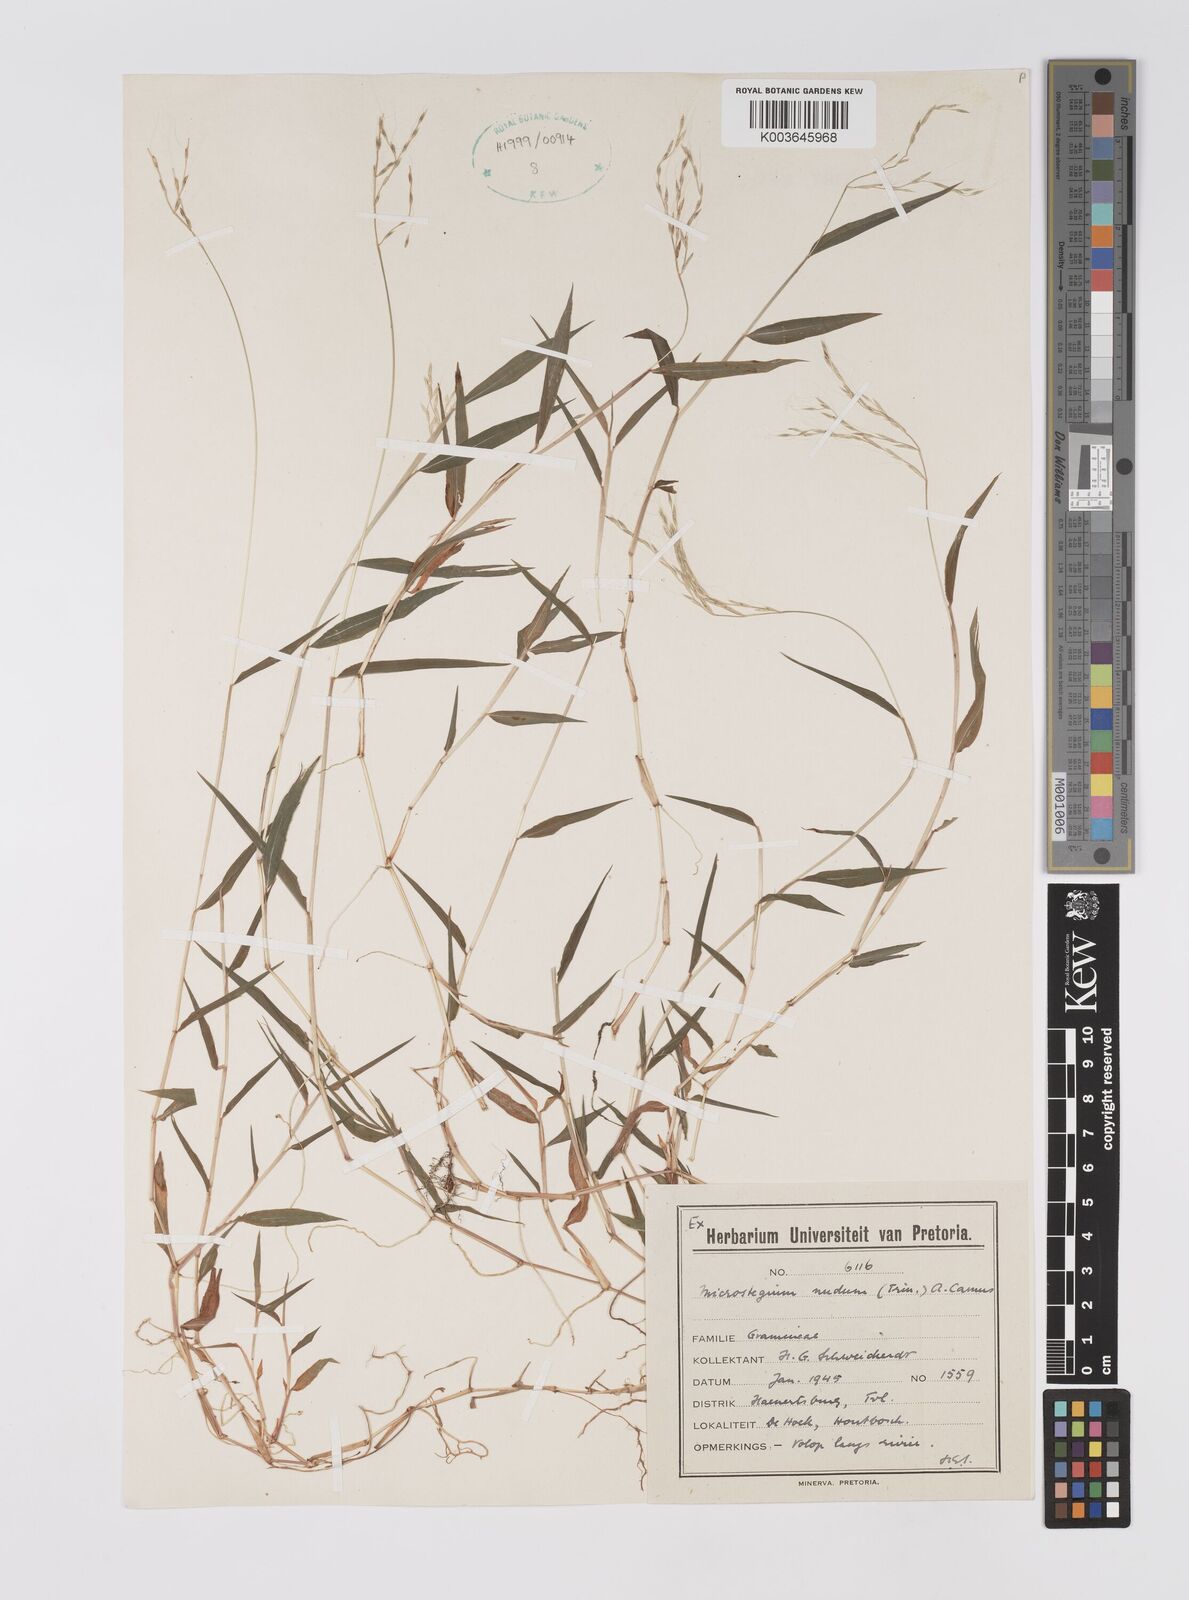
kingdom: Plantae
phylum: Tracheophyta
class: Liliopsida
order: Poales
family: Poaceae
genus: Microstegium
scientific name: Microstegium nudum
